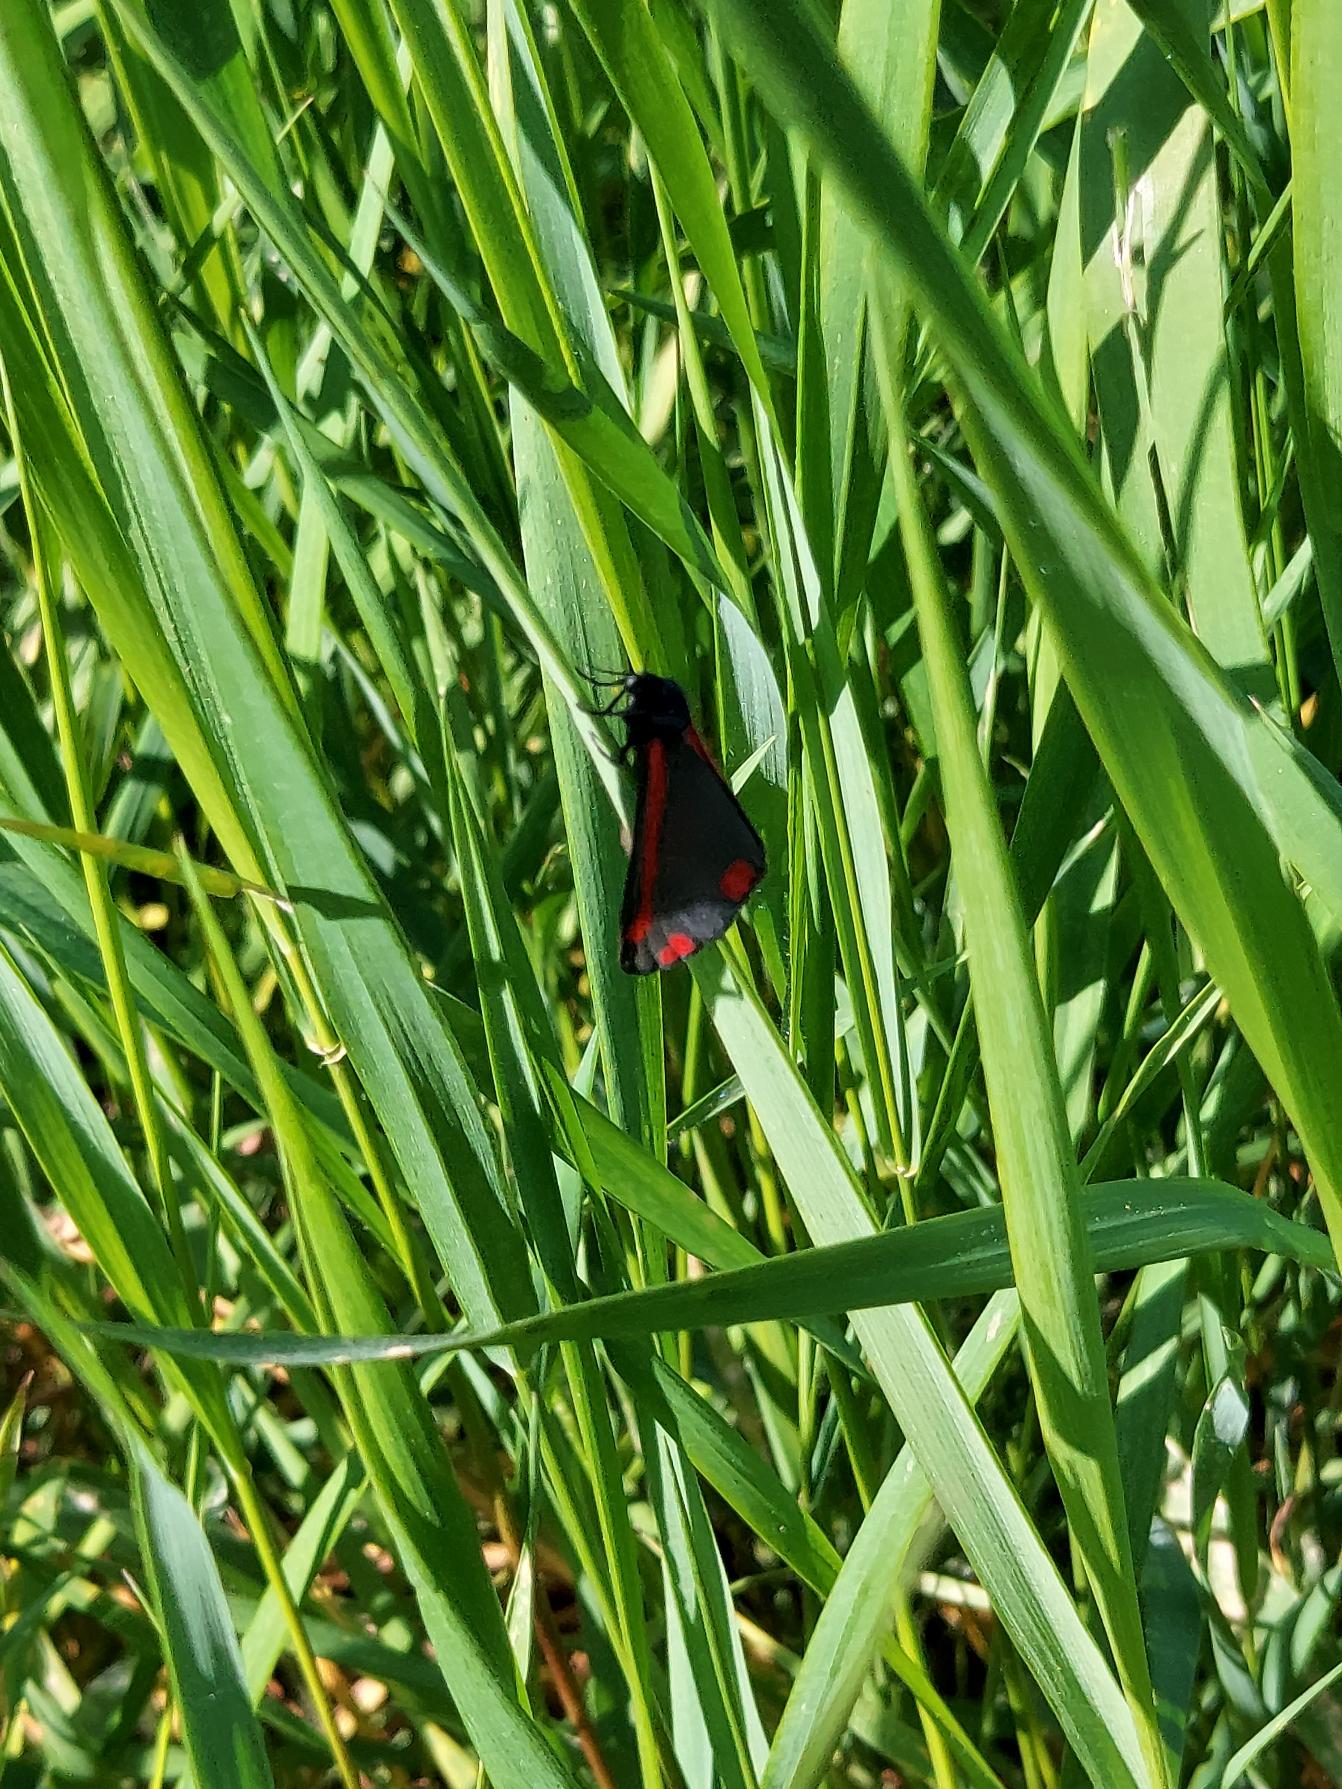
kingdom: Animalia
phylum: Arthropoda
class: Insecta
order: Lepidoptera
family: Erebidae
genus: Tyria
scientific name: Tyria jacobaeae
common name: Blodplet
